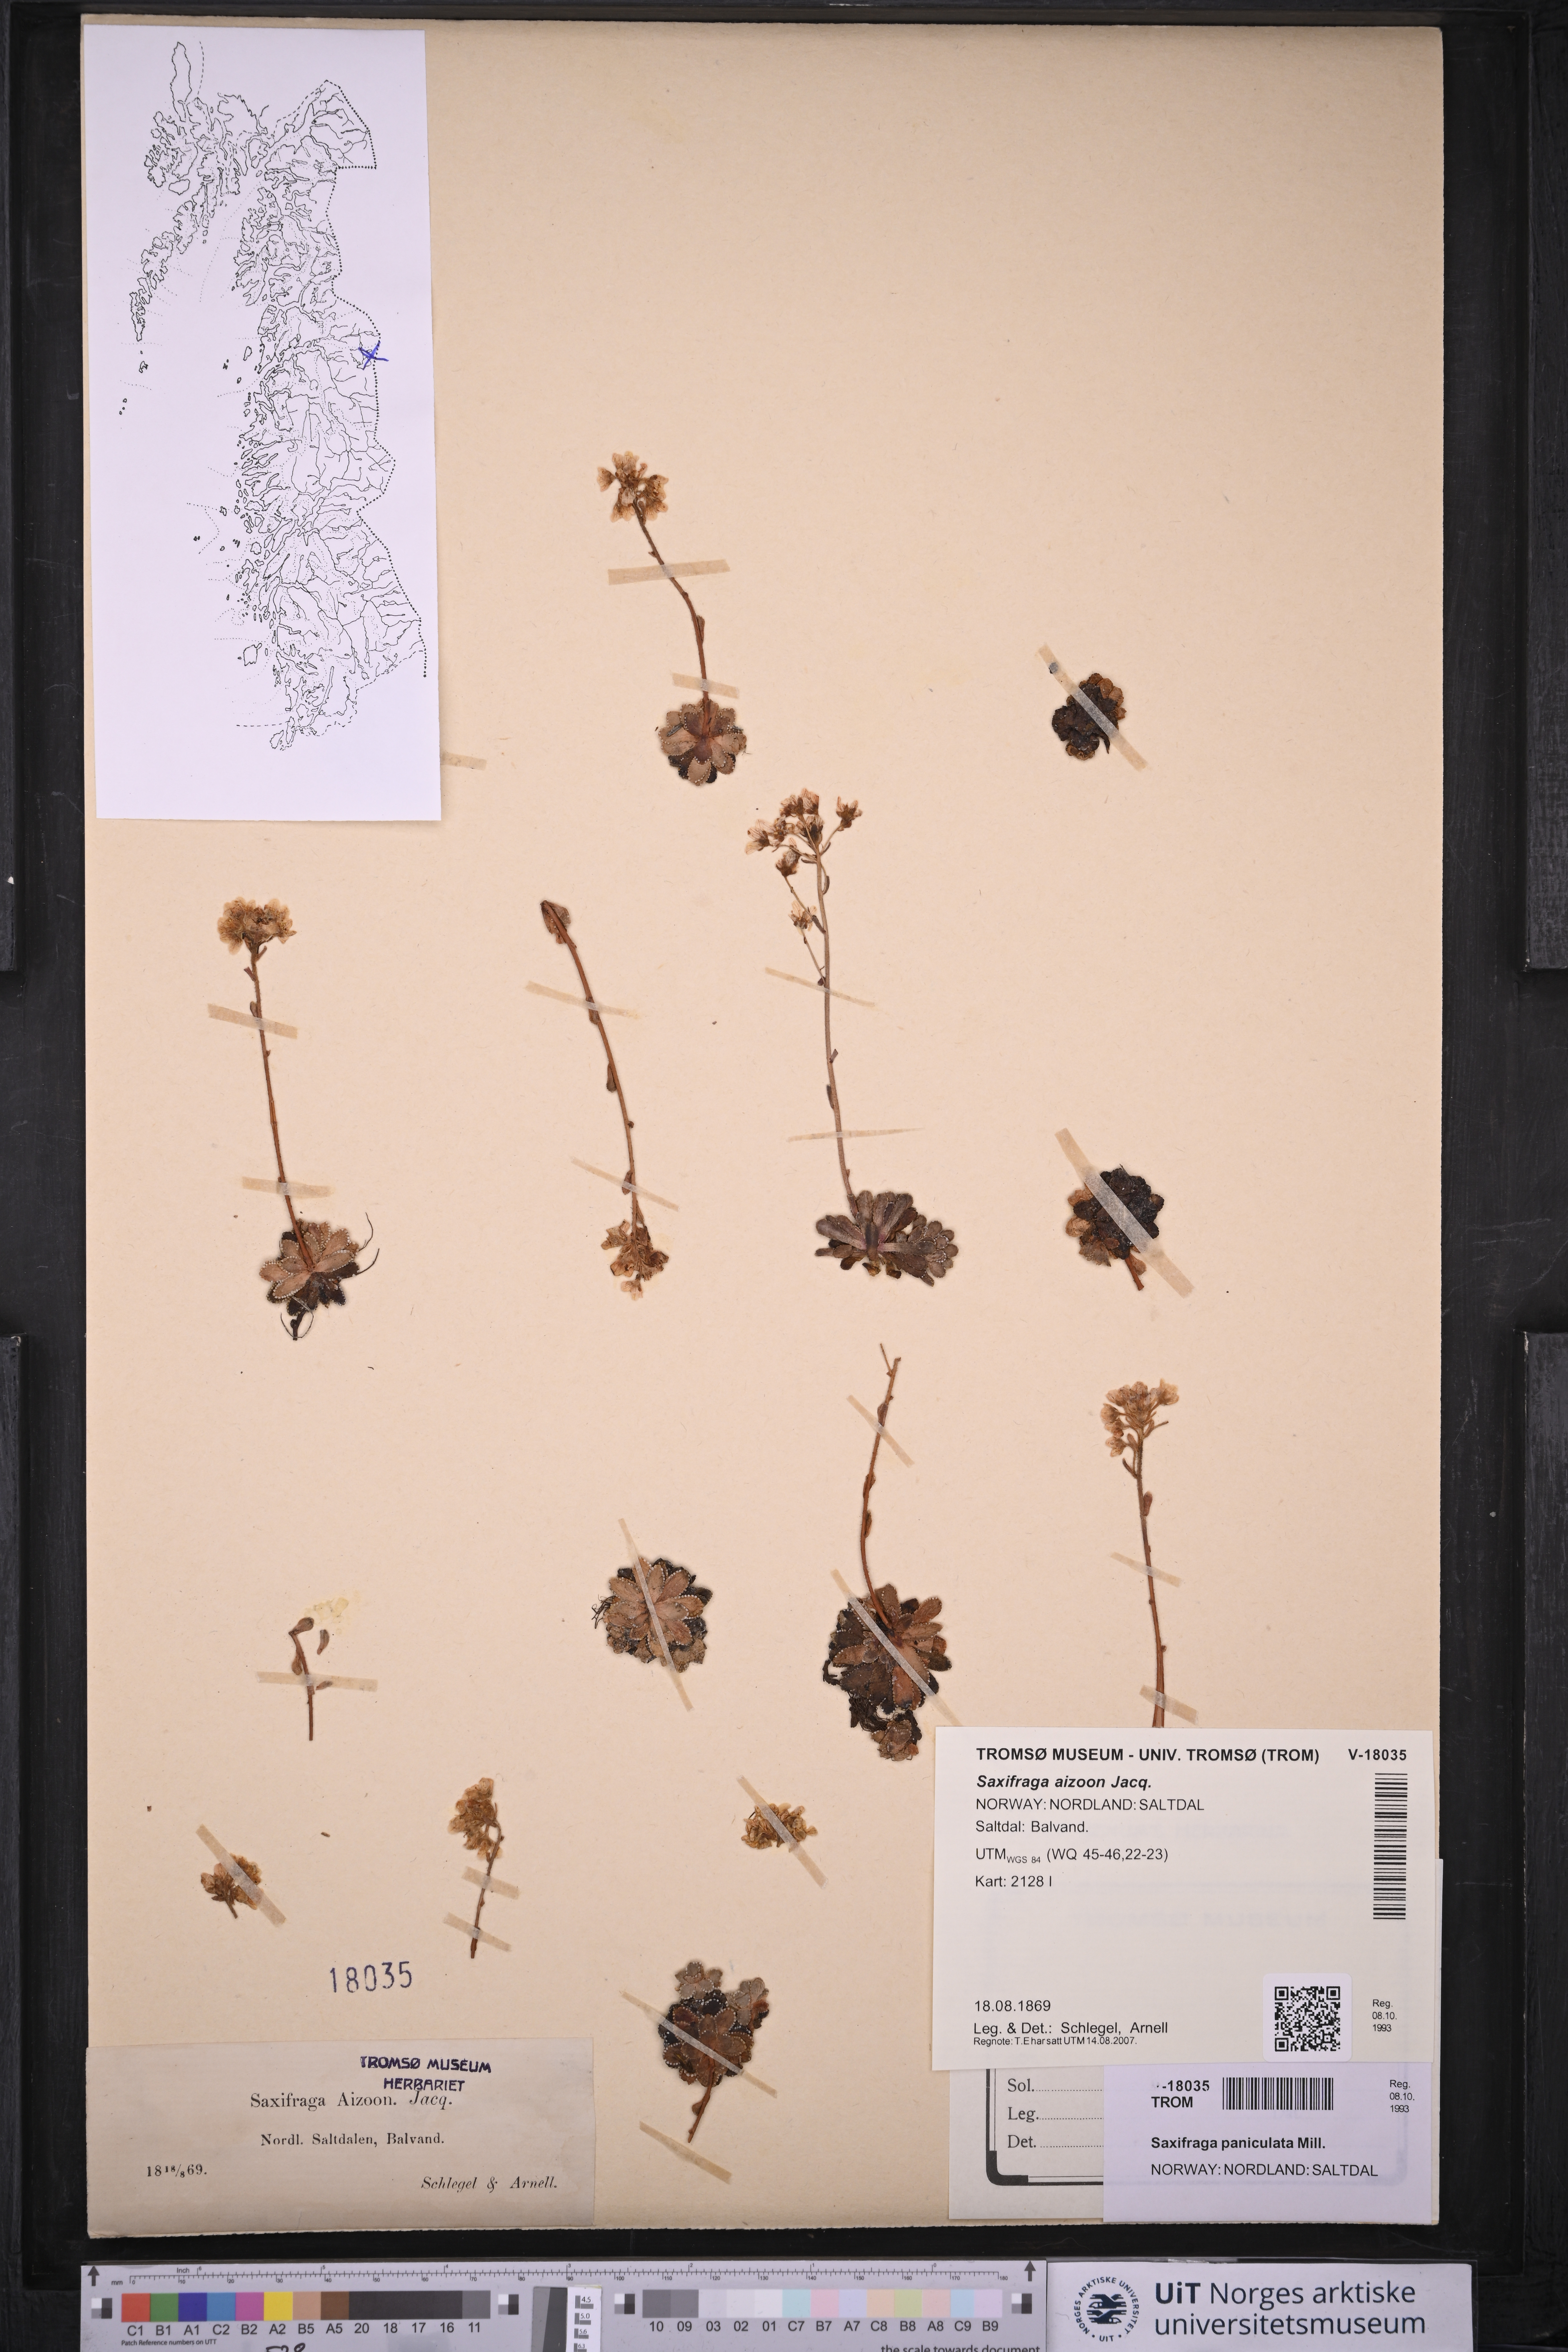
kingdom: Plantae
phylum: Tracheophyta
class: Magnoliopsida
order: Saxifragales
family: Saxifragaceae
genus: Saxifraga
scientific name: Saxifraga paniculata
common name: Livelong saxifrage
